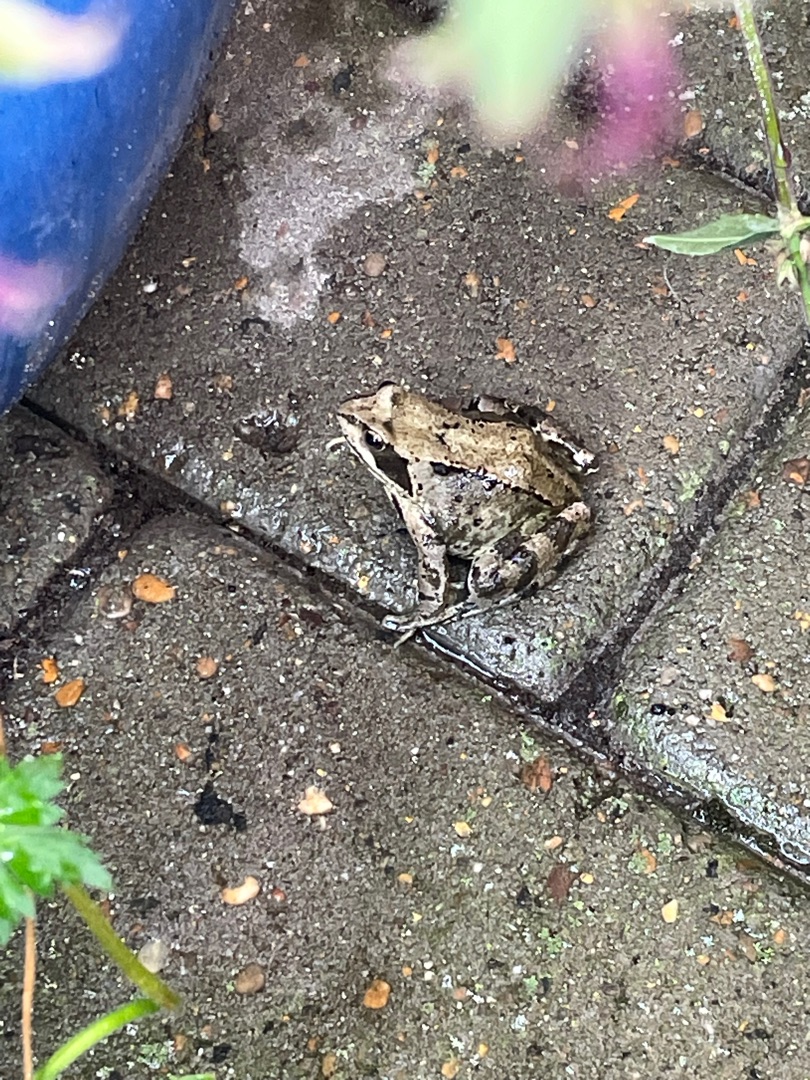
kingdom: Animalia
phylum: Chordata
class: Amphibia
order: Anura
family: Ranidae
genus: Rana
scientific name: Rana temporaria
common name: Butsnudet frø
